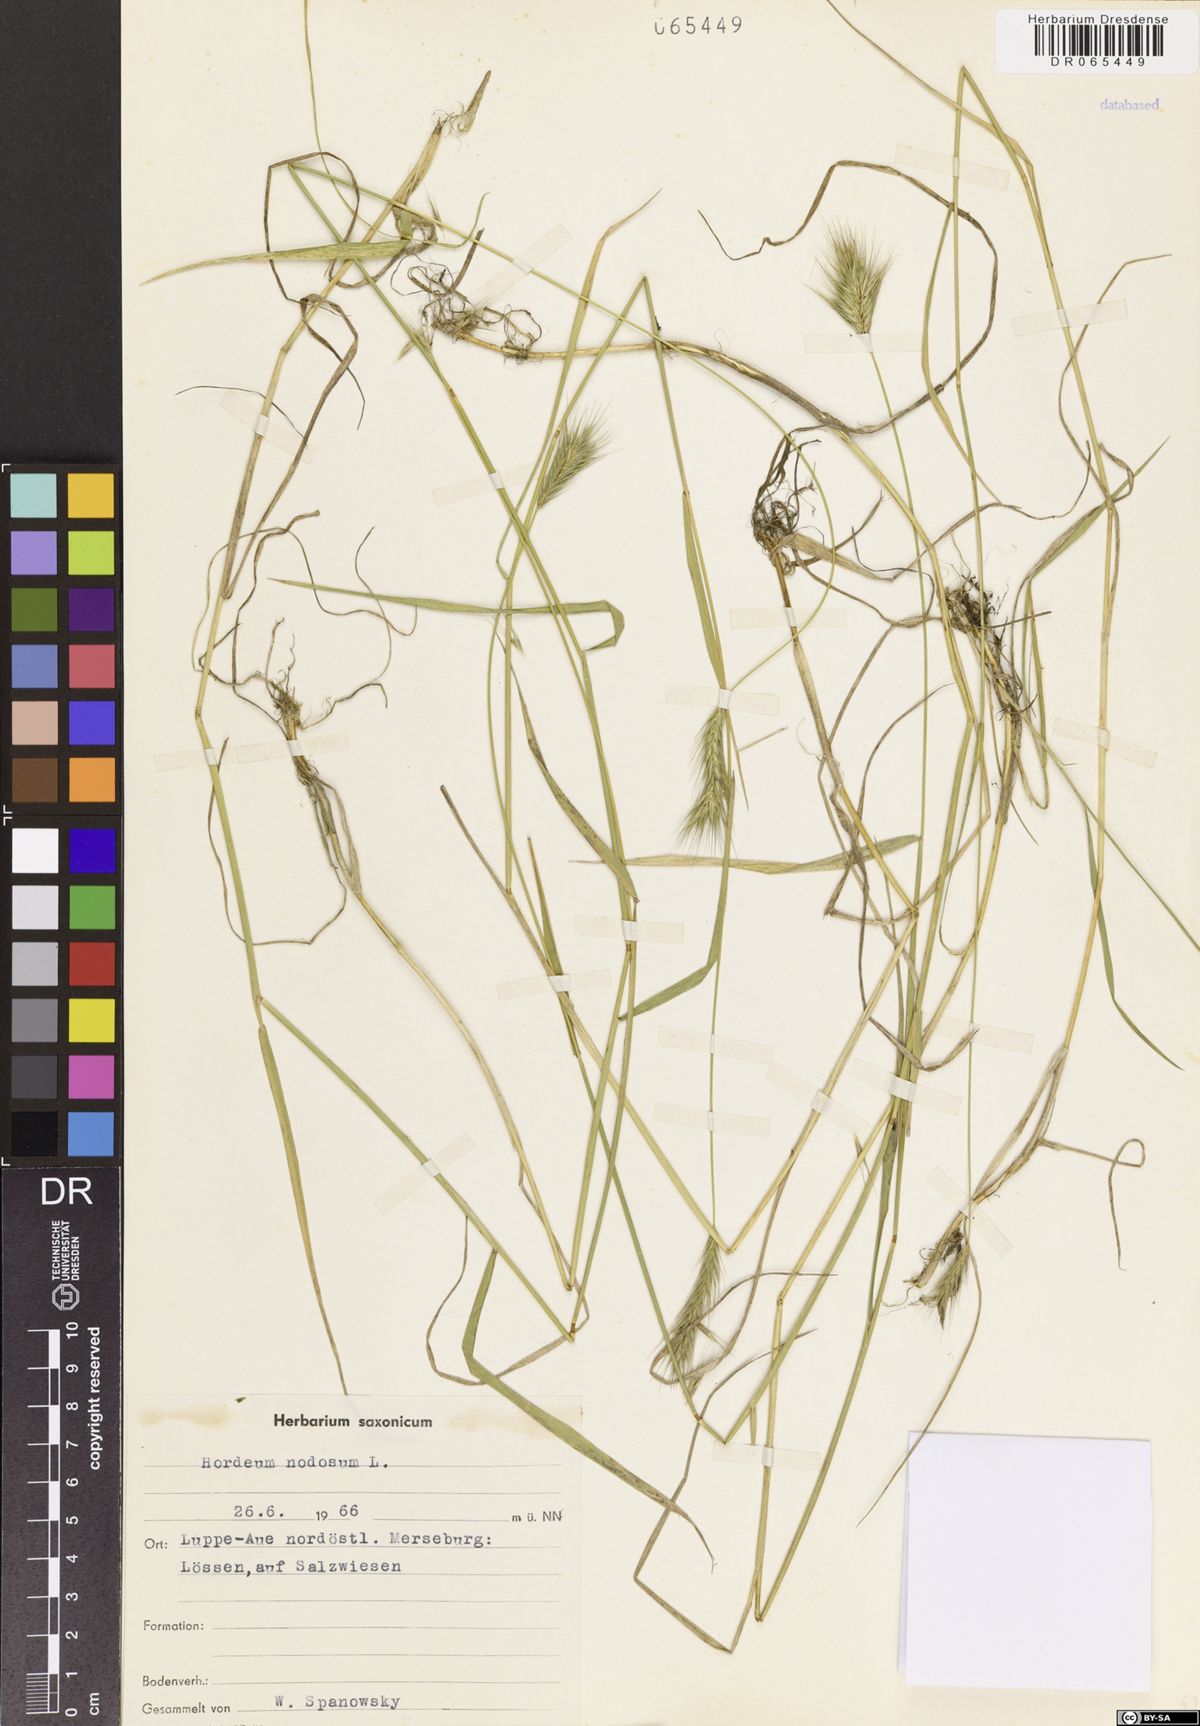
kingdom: Plantae
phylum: Tracheophyta
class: Liliopsida
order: Poales
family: Poaceae
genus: Hordeum
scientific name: Hordeum bulbosum
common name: Bulbous barley
